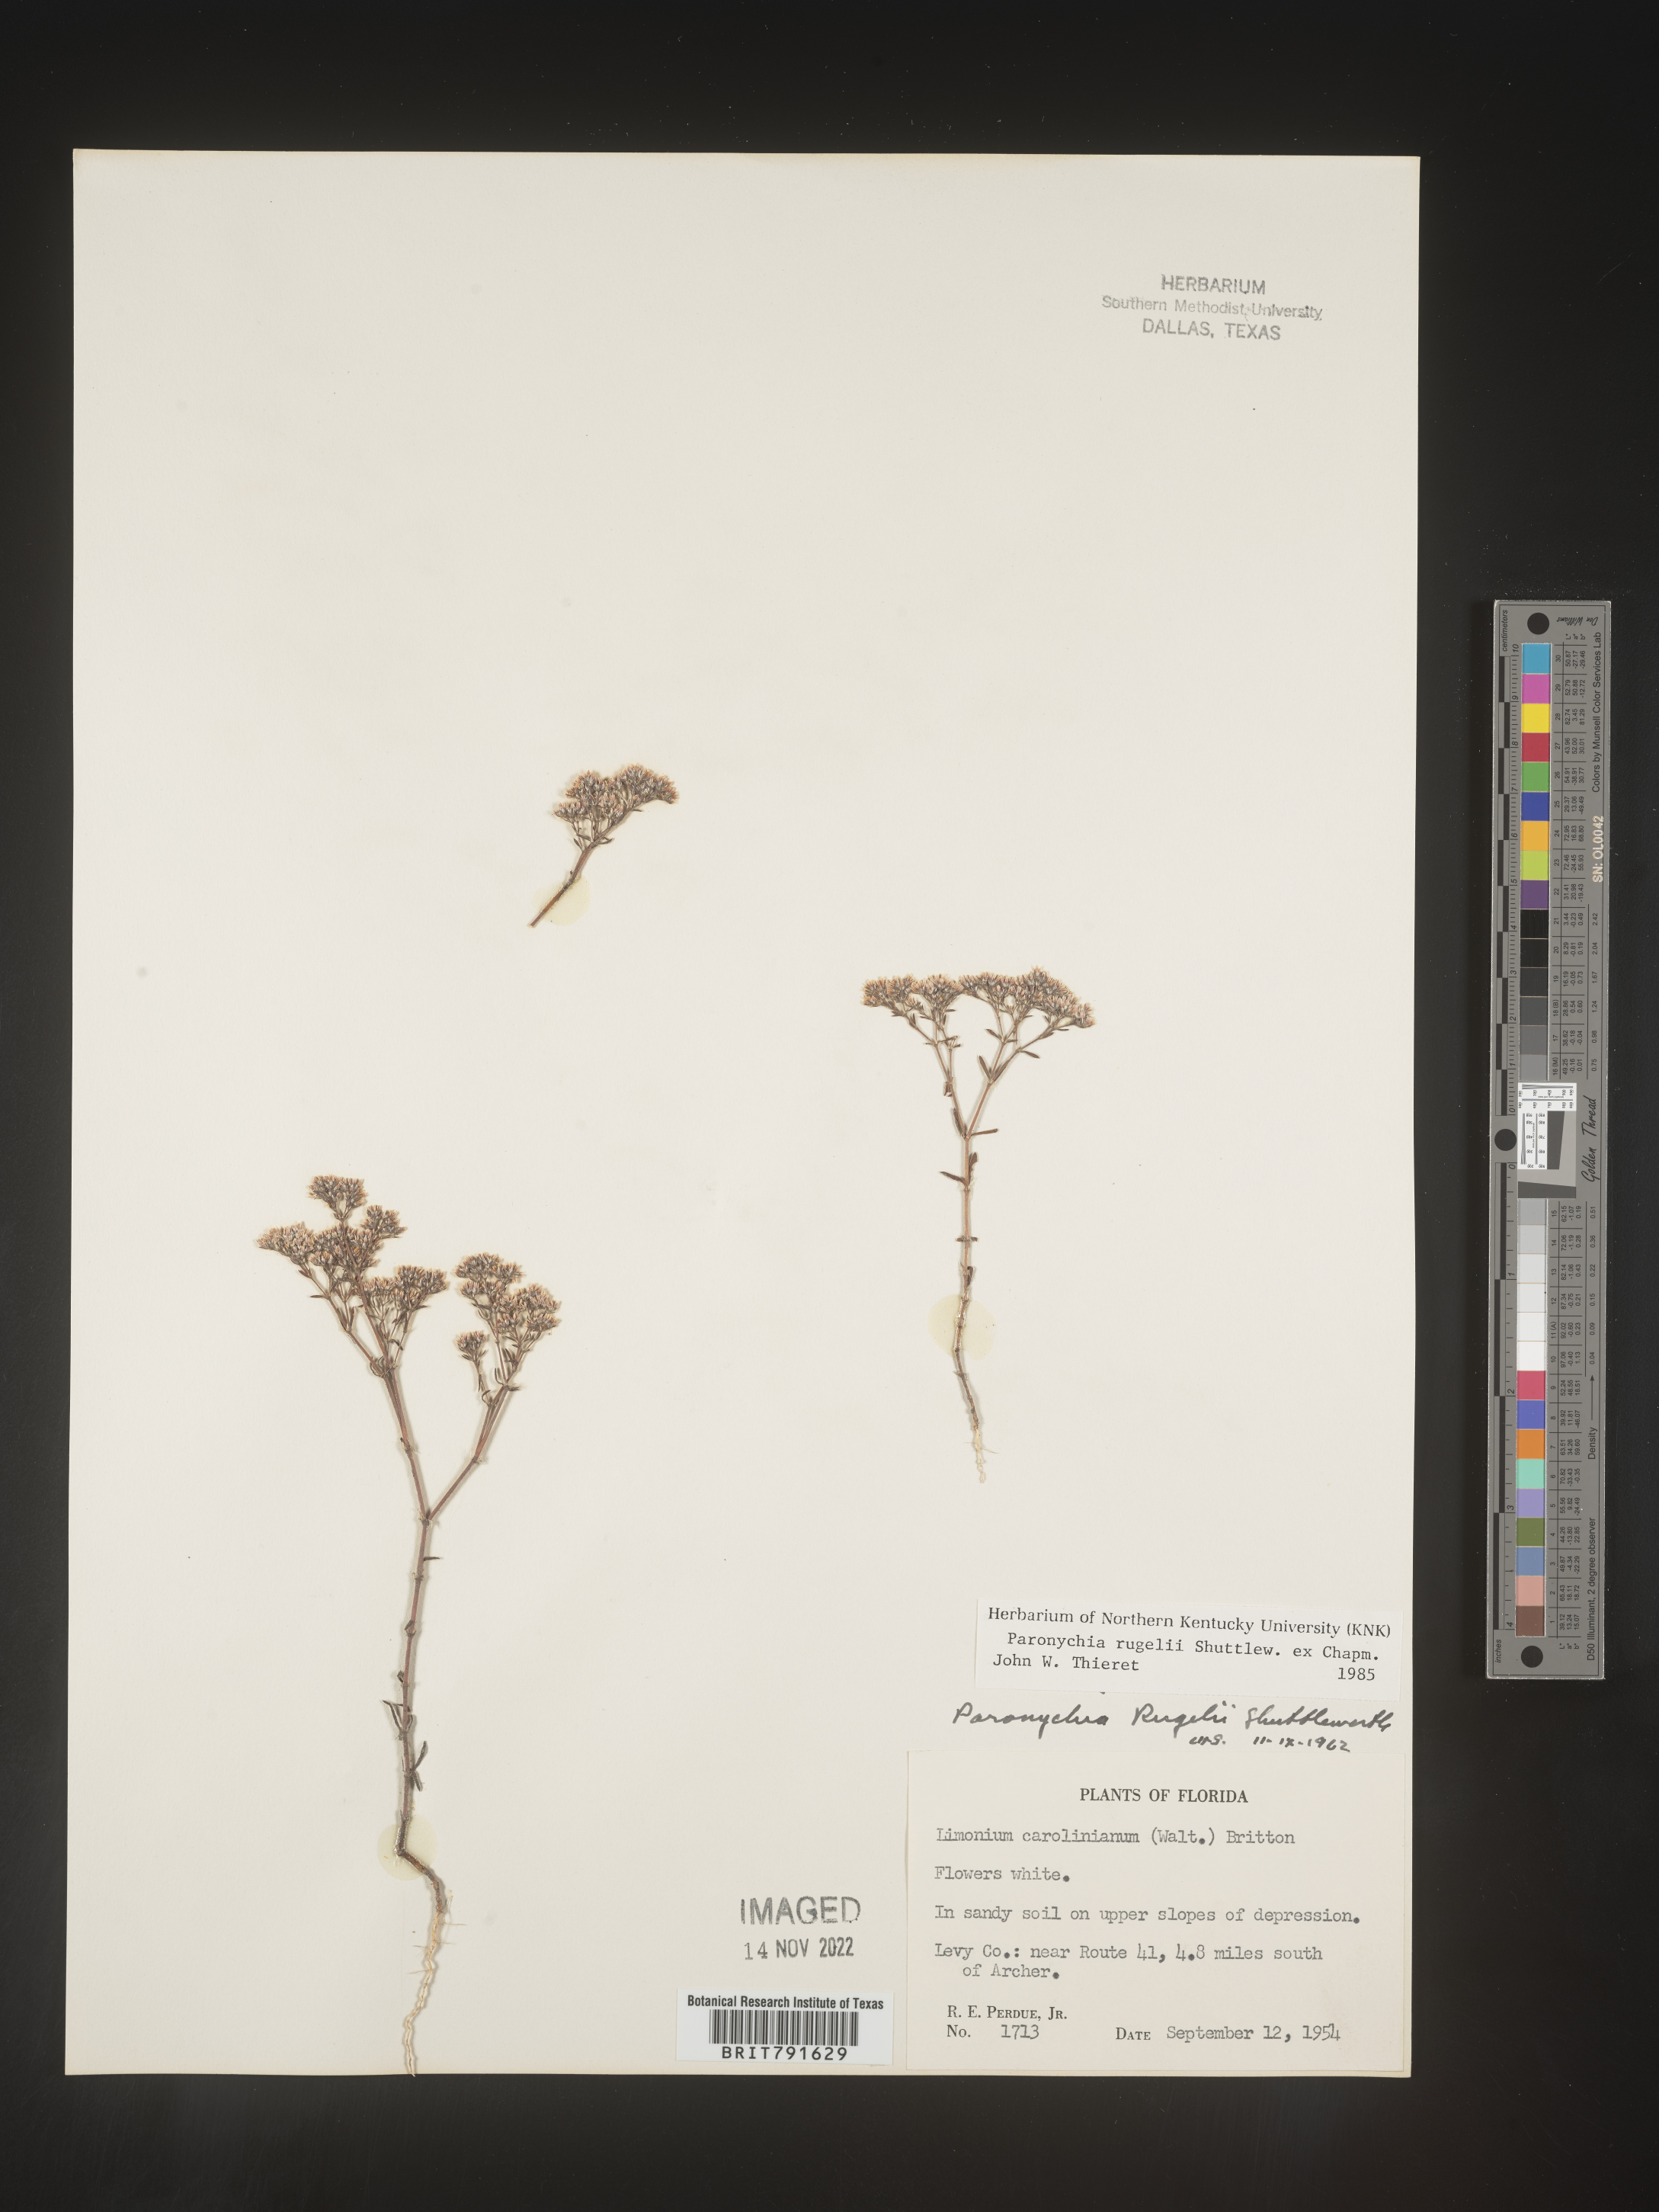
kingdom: Plantae
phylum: Tracheophyta
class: Magnoliopsida
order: Caryophyllales
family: Caryophyllaceae
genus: Paronychia
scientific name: Paronychia rugelii
